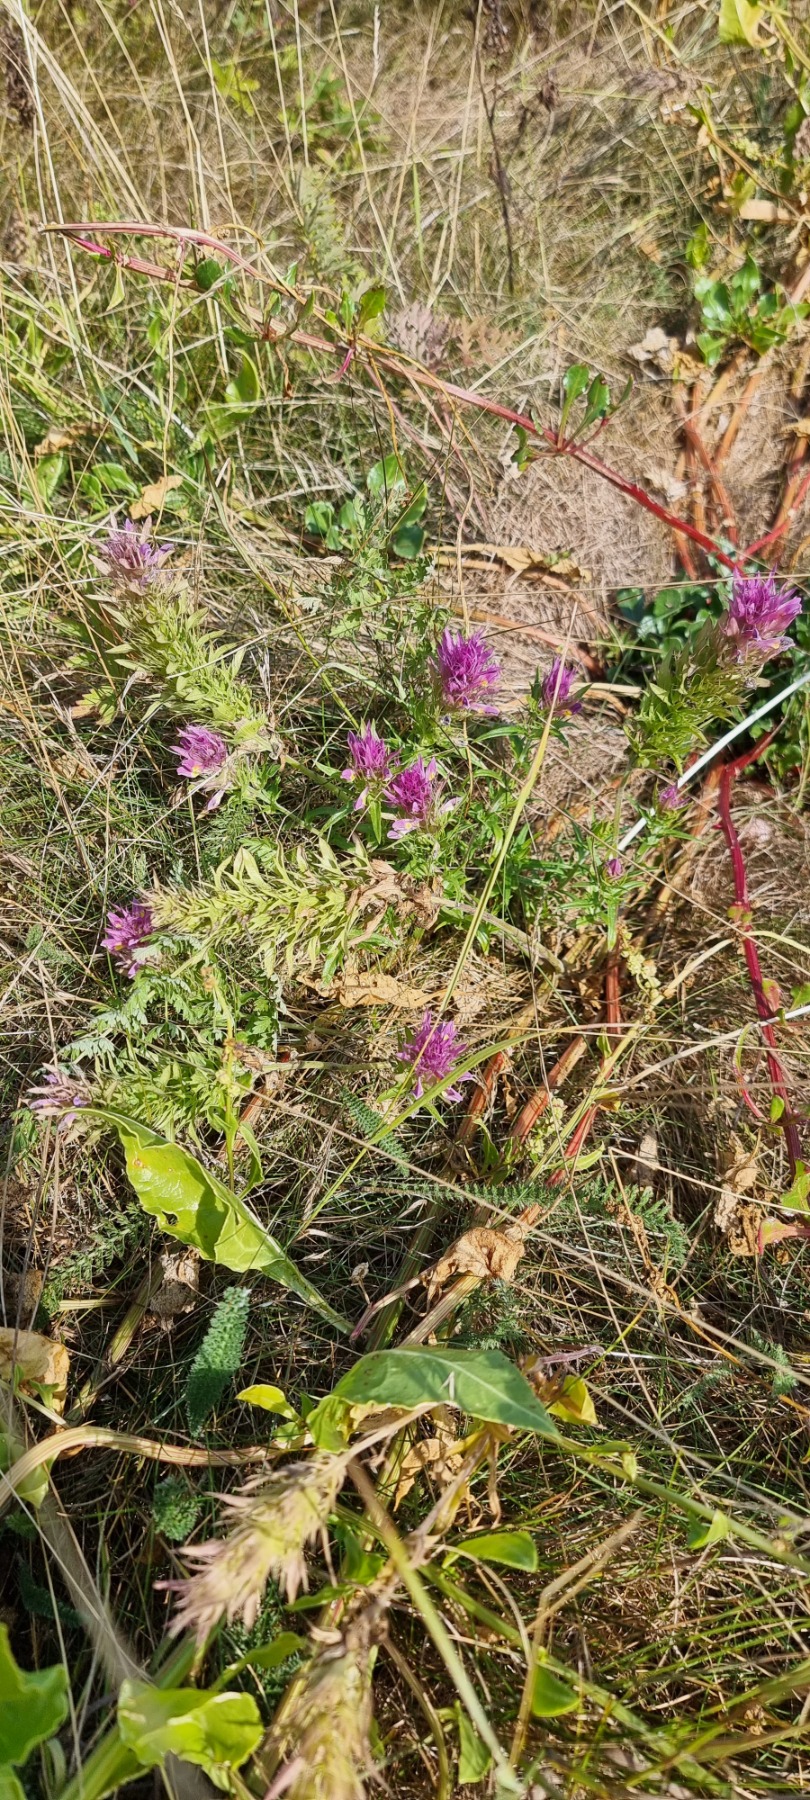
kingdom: Plantae
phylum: Tracheophyta
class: Magnoliopsida
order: Lamiales
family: Orobanchaceae
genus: Melampyrum
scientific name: Melampyrum arvense
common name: Ager-kohvede
